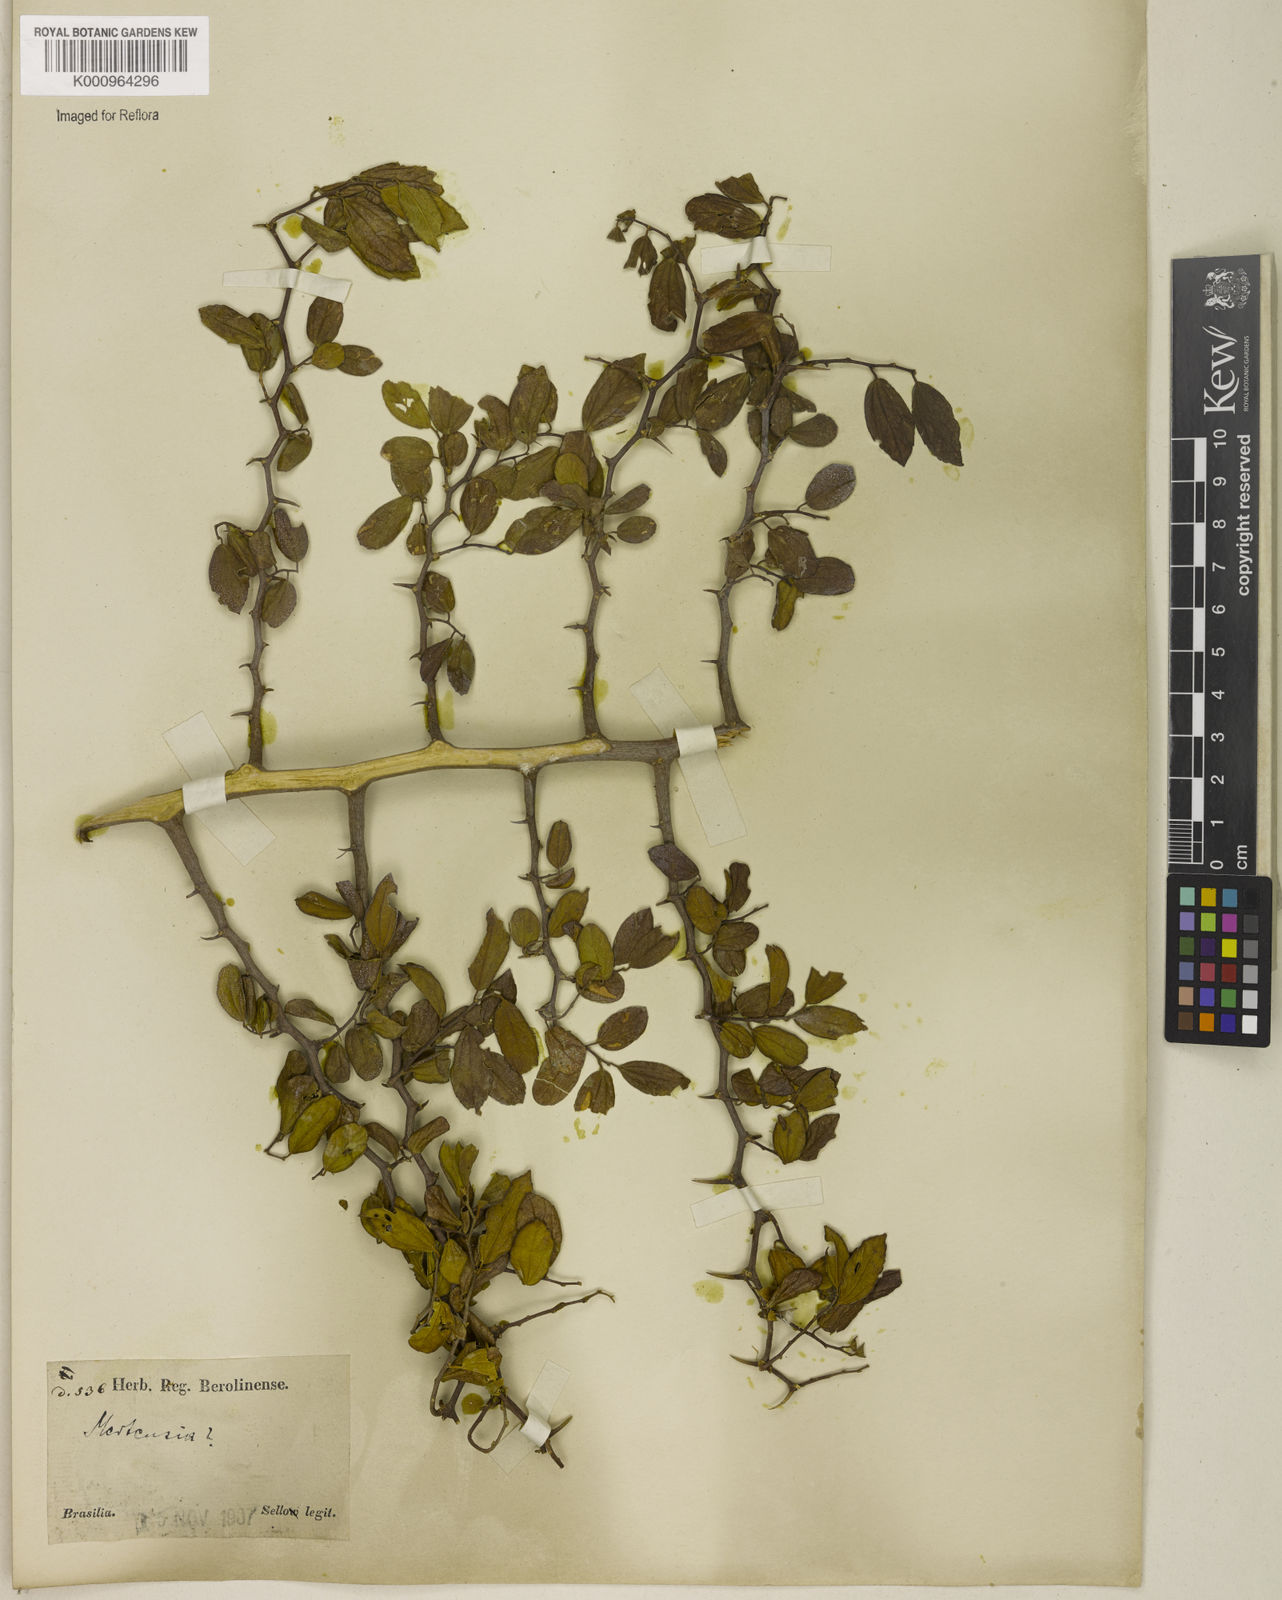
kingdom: Plantae
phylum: Tracheophyta
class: Magnoliopsida
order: Rosales
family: Cannabaceae
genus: Celtis
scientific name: Celtis
